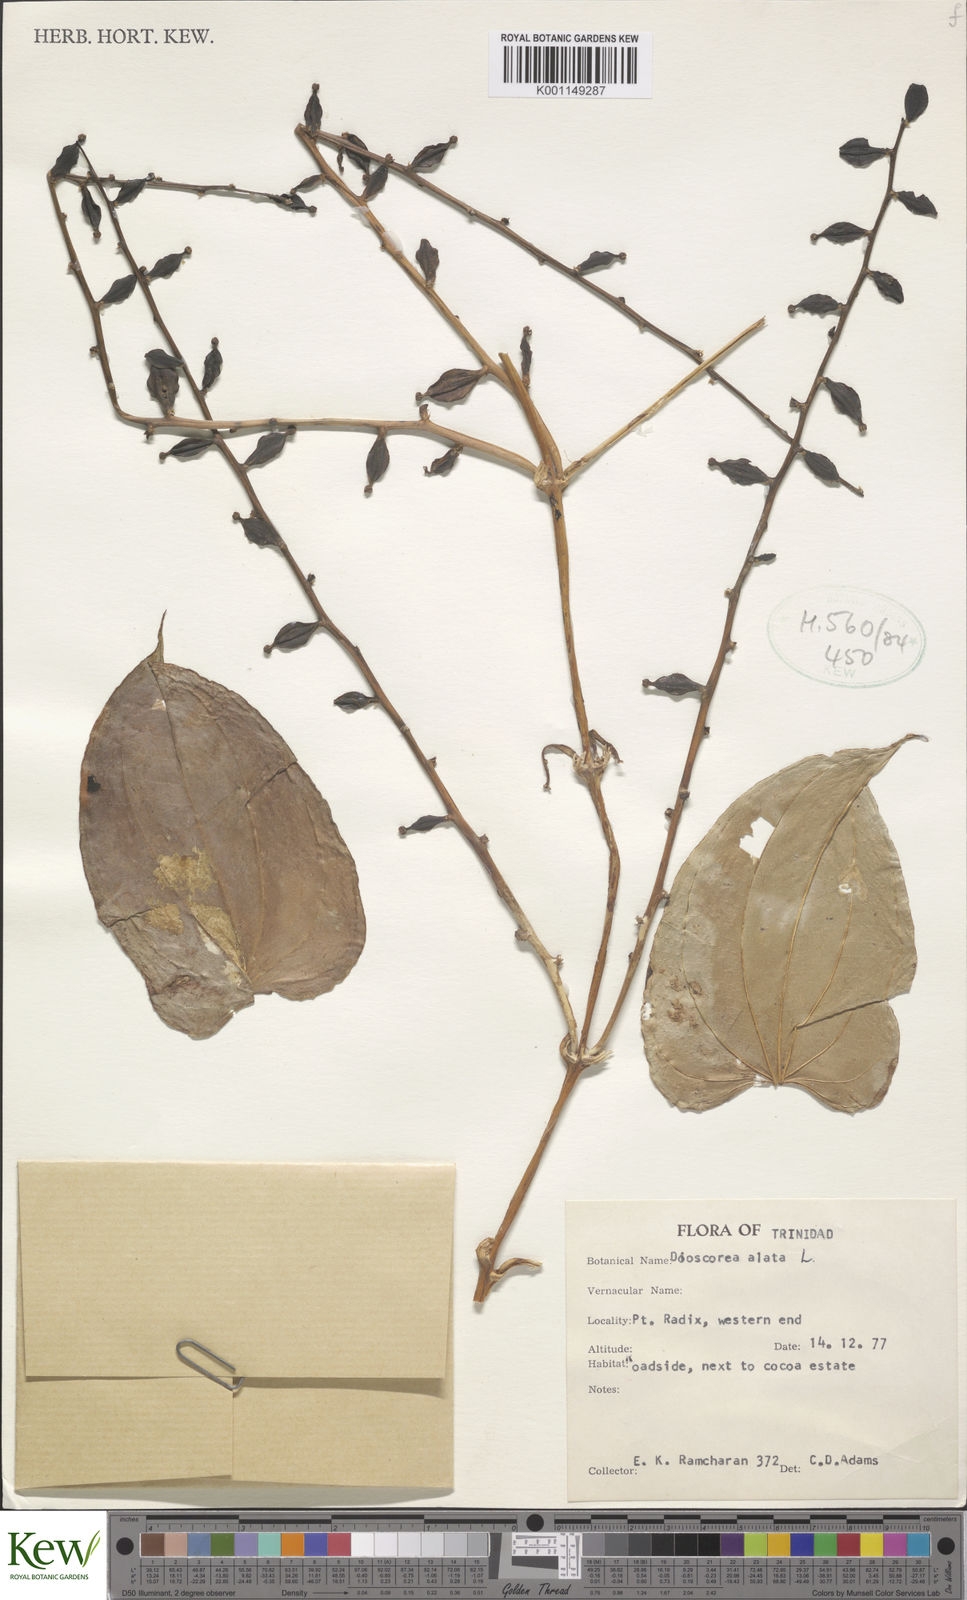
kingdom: Plantae
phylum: Tracheophyta
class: Liliopsida
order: Dioscoreales
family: Dioscoreaceae
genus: Dioscorea
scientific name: Dioscorea alata
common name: Water yam
